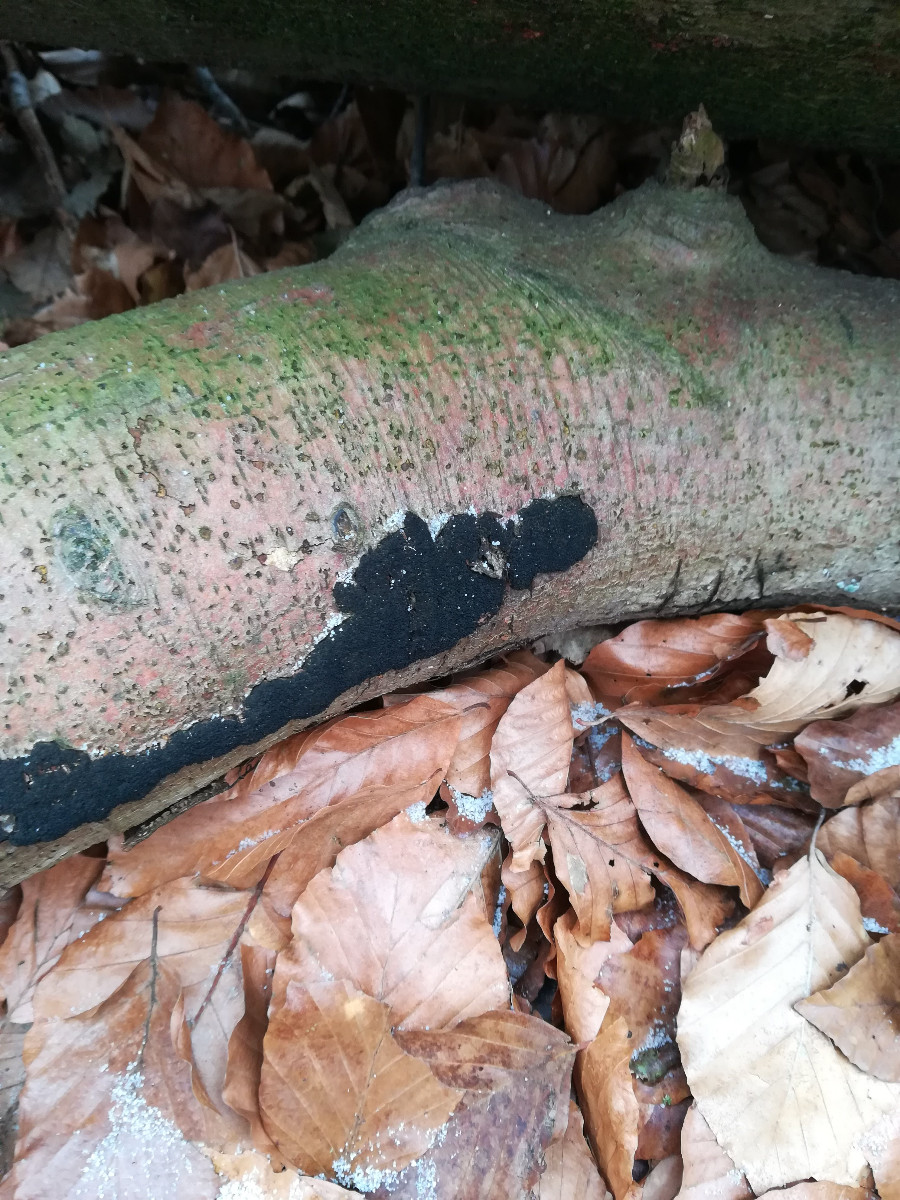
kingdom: Fungi
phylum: Ascomycota
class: Sordariomycetes
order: Xylariales
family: Diatrypaceae
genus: Eutypa
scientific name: Eutypa spinosa
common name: grov kulskorpe
